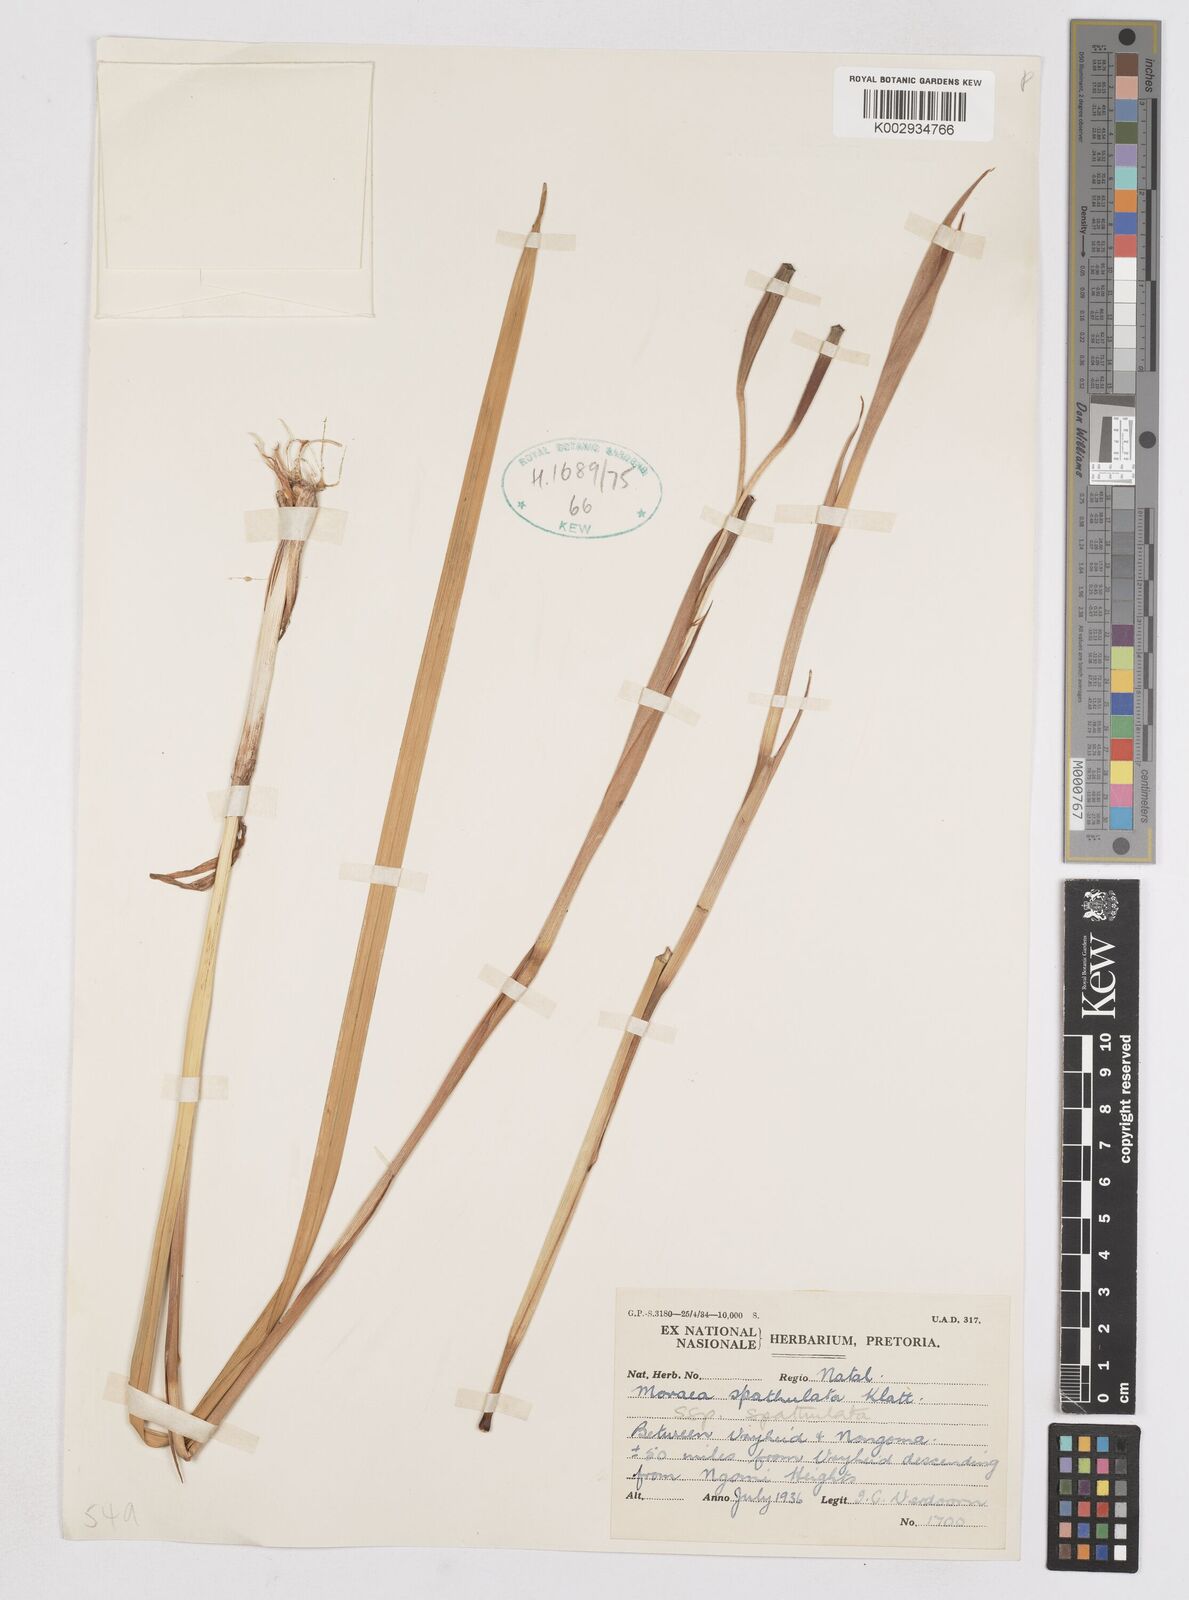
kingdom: Plantae
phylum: Tracheophyta
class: Liliopsida
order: Asparagales
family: Iridaceae
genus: Moraea
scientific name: Moraea spathulata
